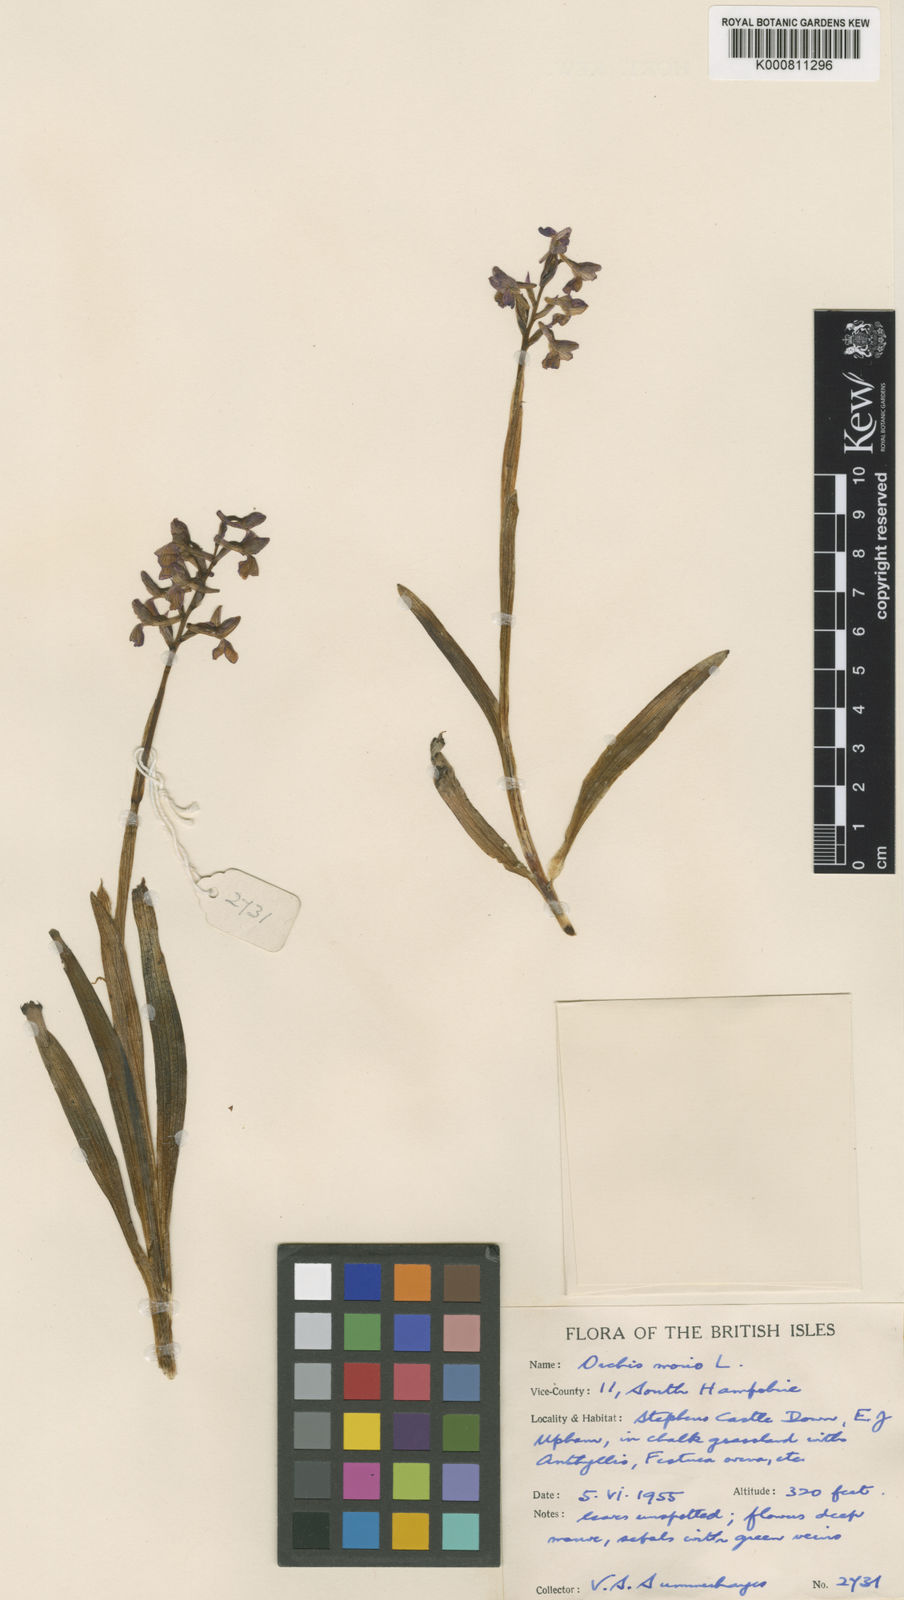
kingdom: Plantae
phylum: Tracheophyta
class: Liliopsida
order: Asparagales
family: Orchidaceae
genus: Anacamptis
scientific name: Anacamptis morio
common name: Green-winged orchid
